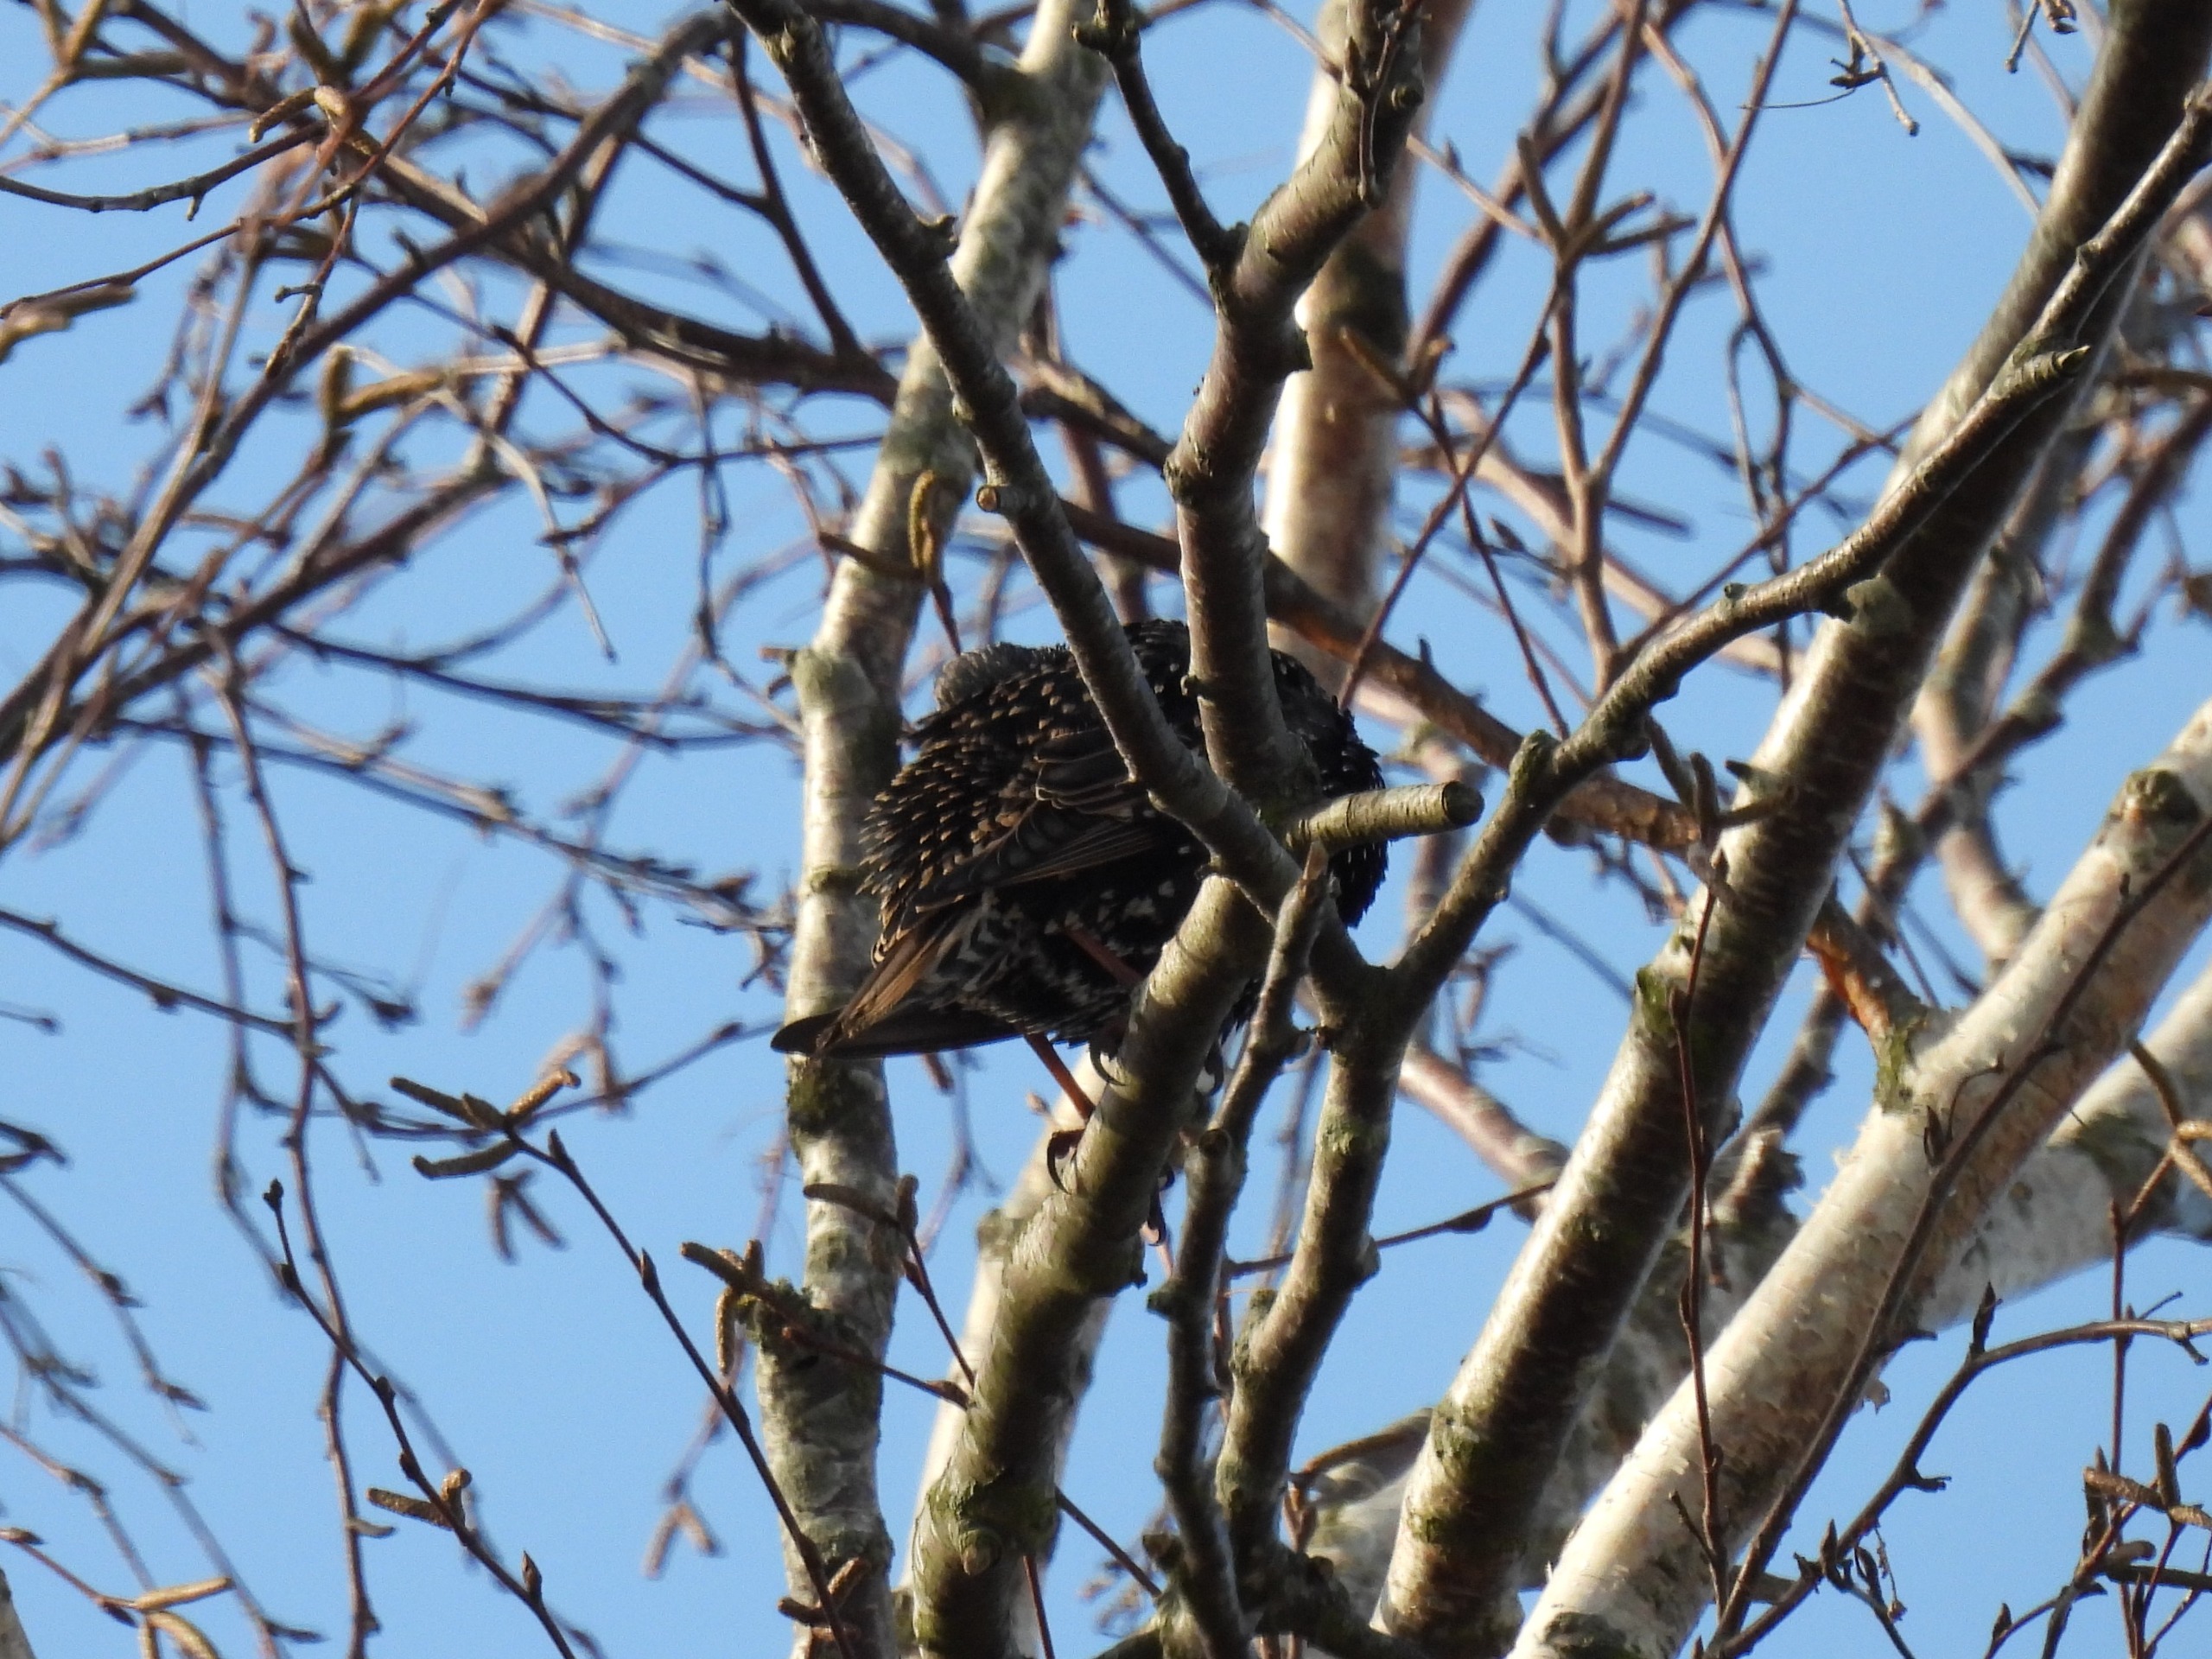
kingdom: Animalia
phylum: Chordata
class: Aves
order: Passeriformes
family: Sturnidae
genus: Sturnus
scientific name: Sturnus vulgaris
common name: Stær
